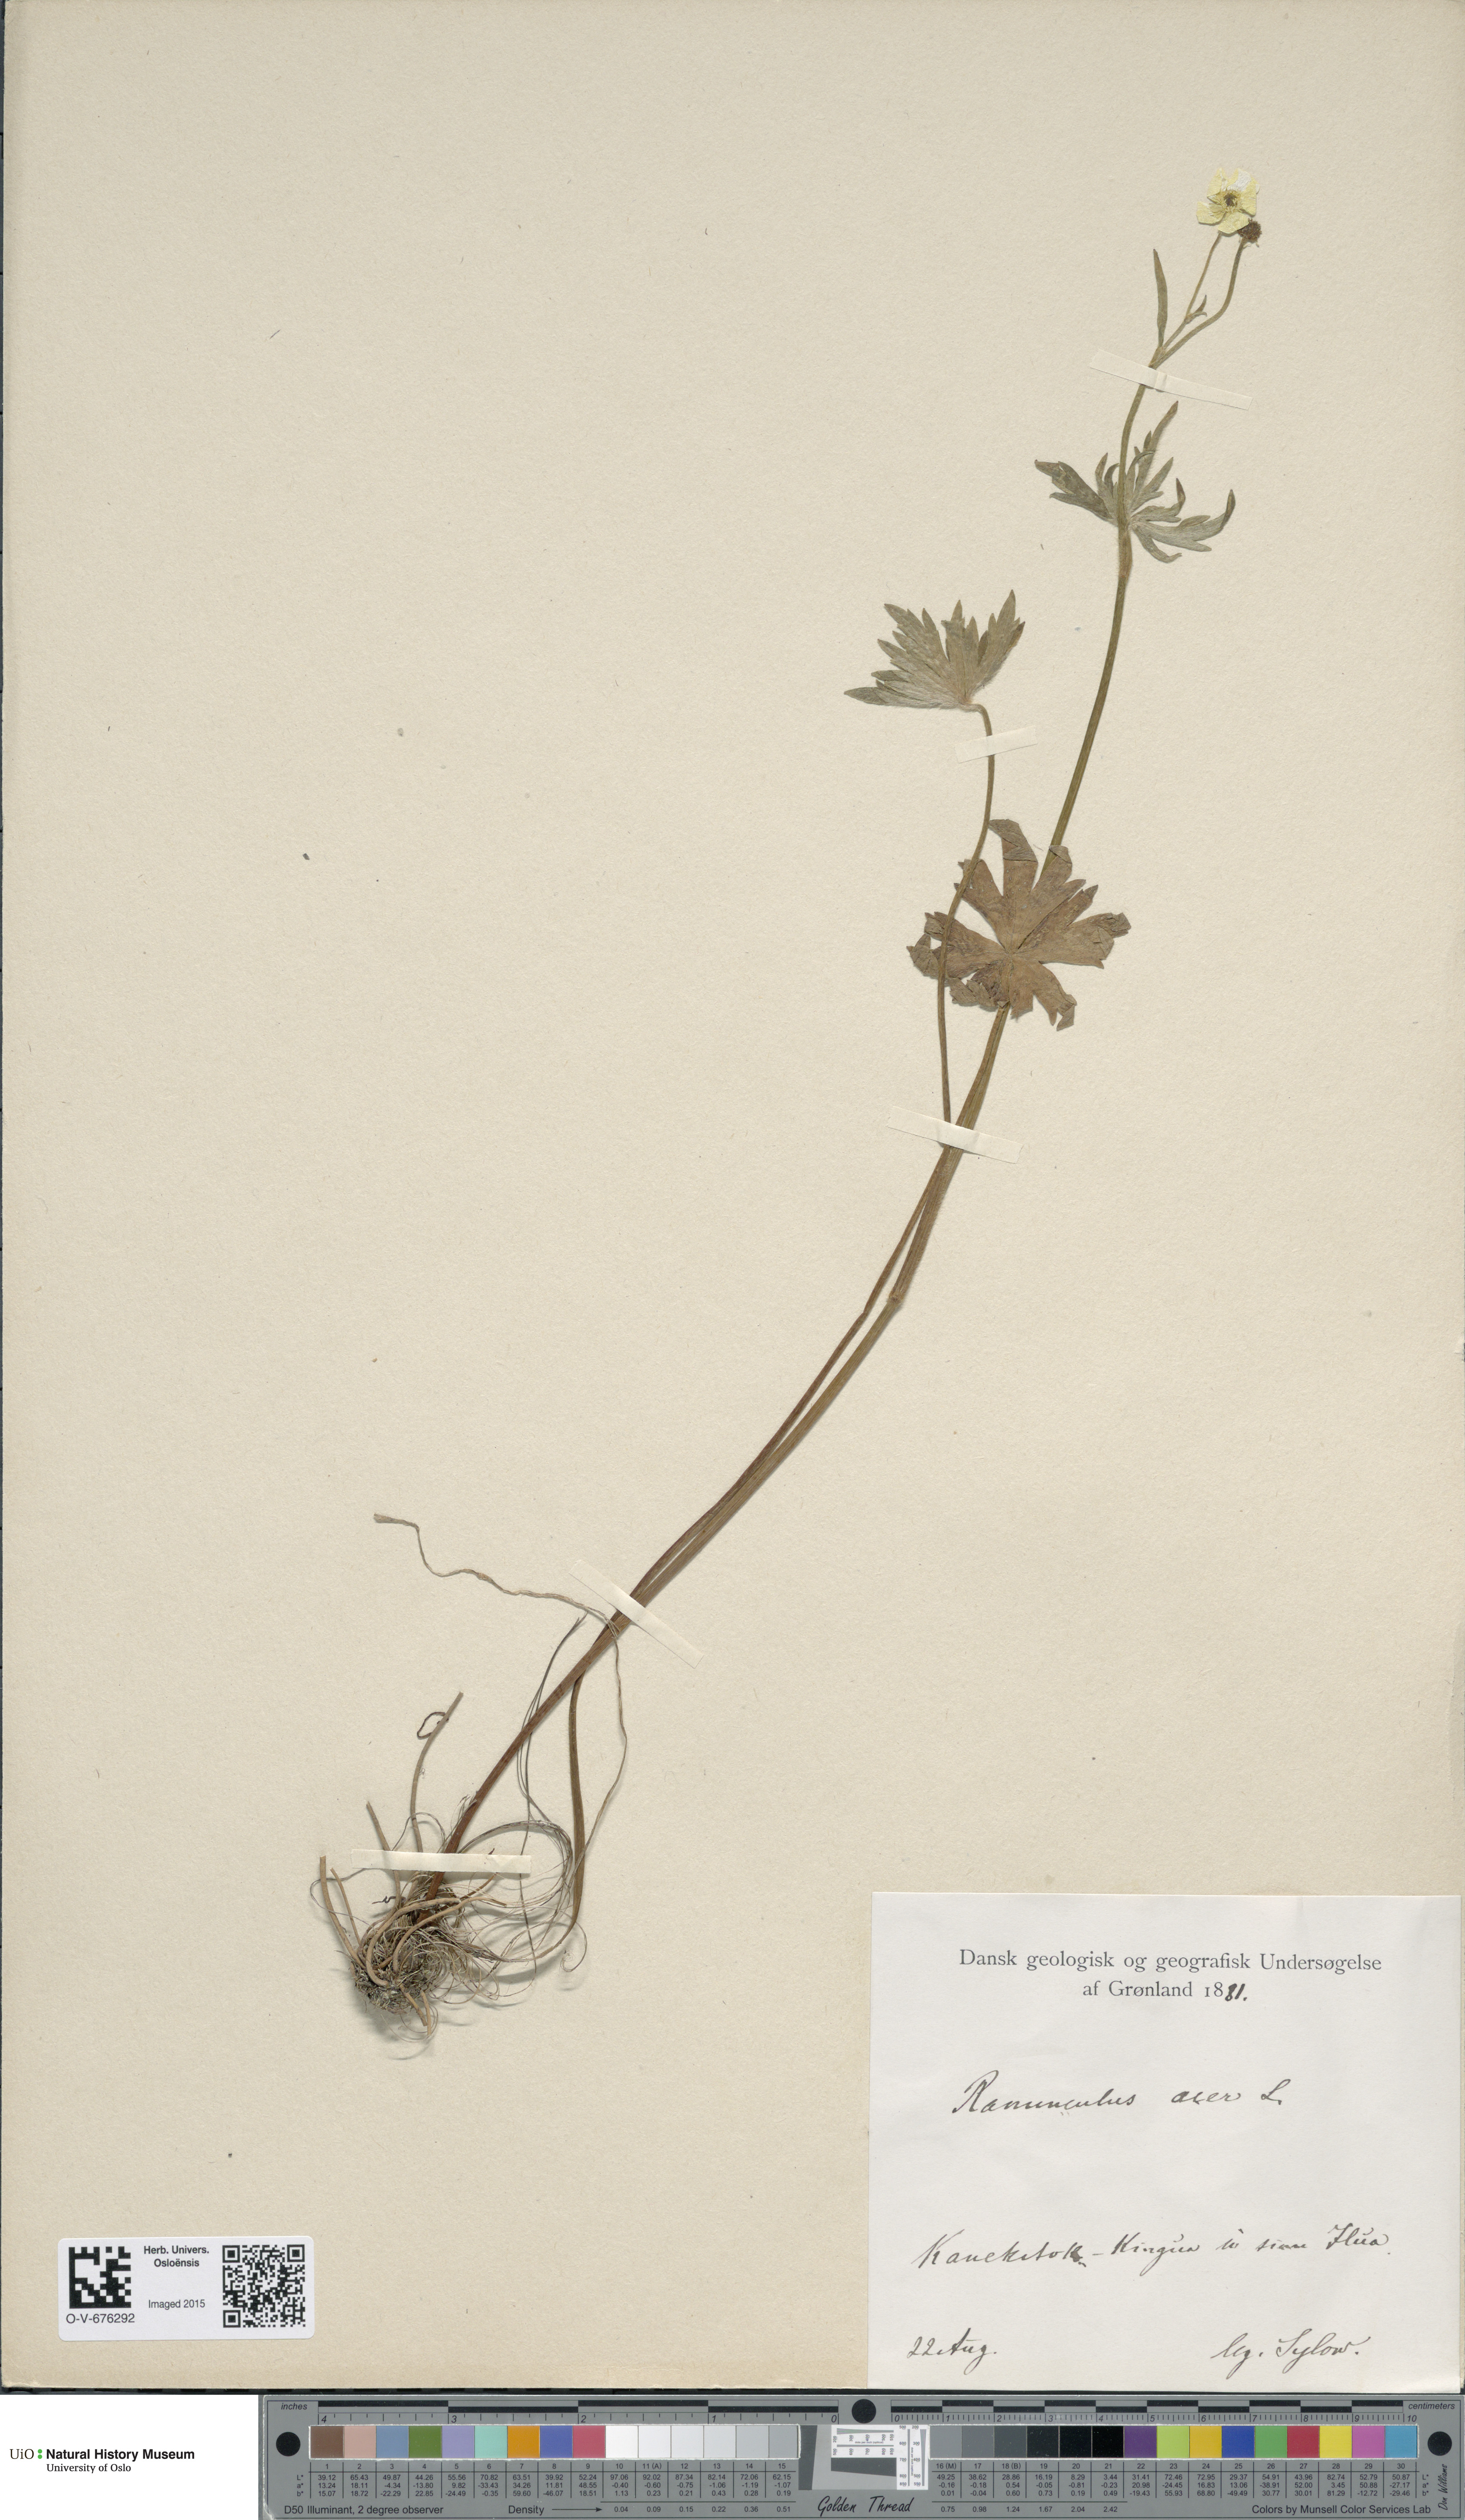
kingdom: Plantae
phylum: Tracheophyta
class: Magnoliopsida
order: Ranunculales
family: Ranunculaceae
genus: Ranunculus
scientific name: Ranunculus acris
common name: Meadow buttercup
